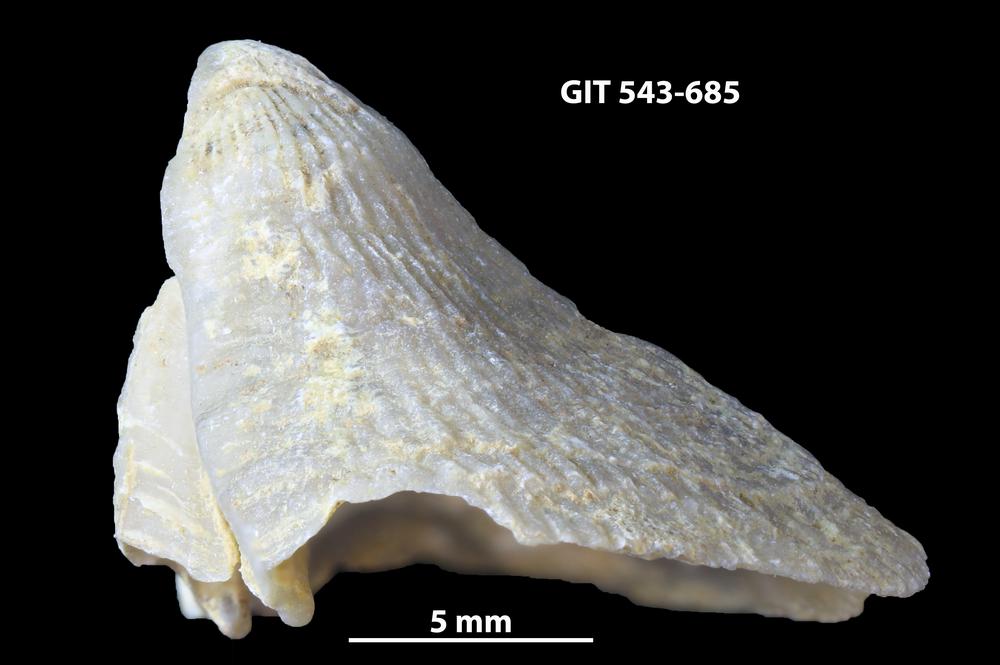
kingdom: Animalia
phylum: Brachiopoda
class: Rhynchonellata
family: Clitambonitidae
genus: Vellamo
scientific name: Vellamo oandoensis
